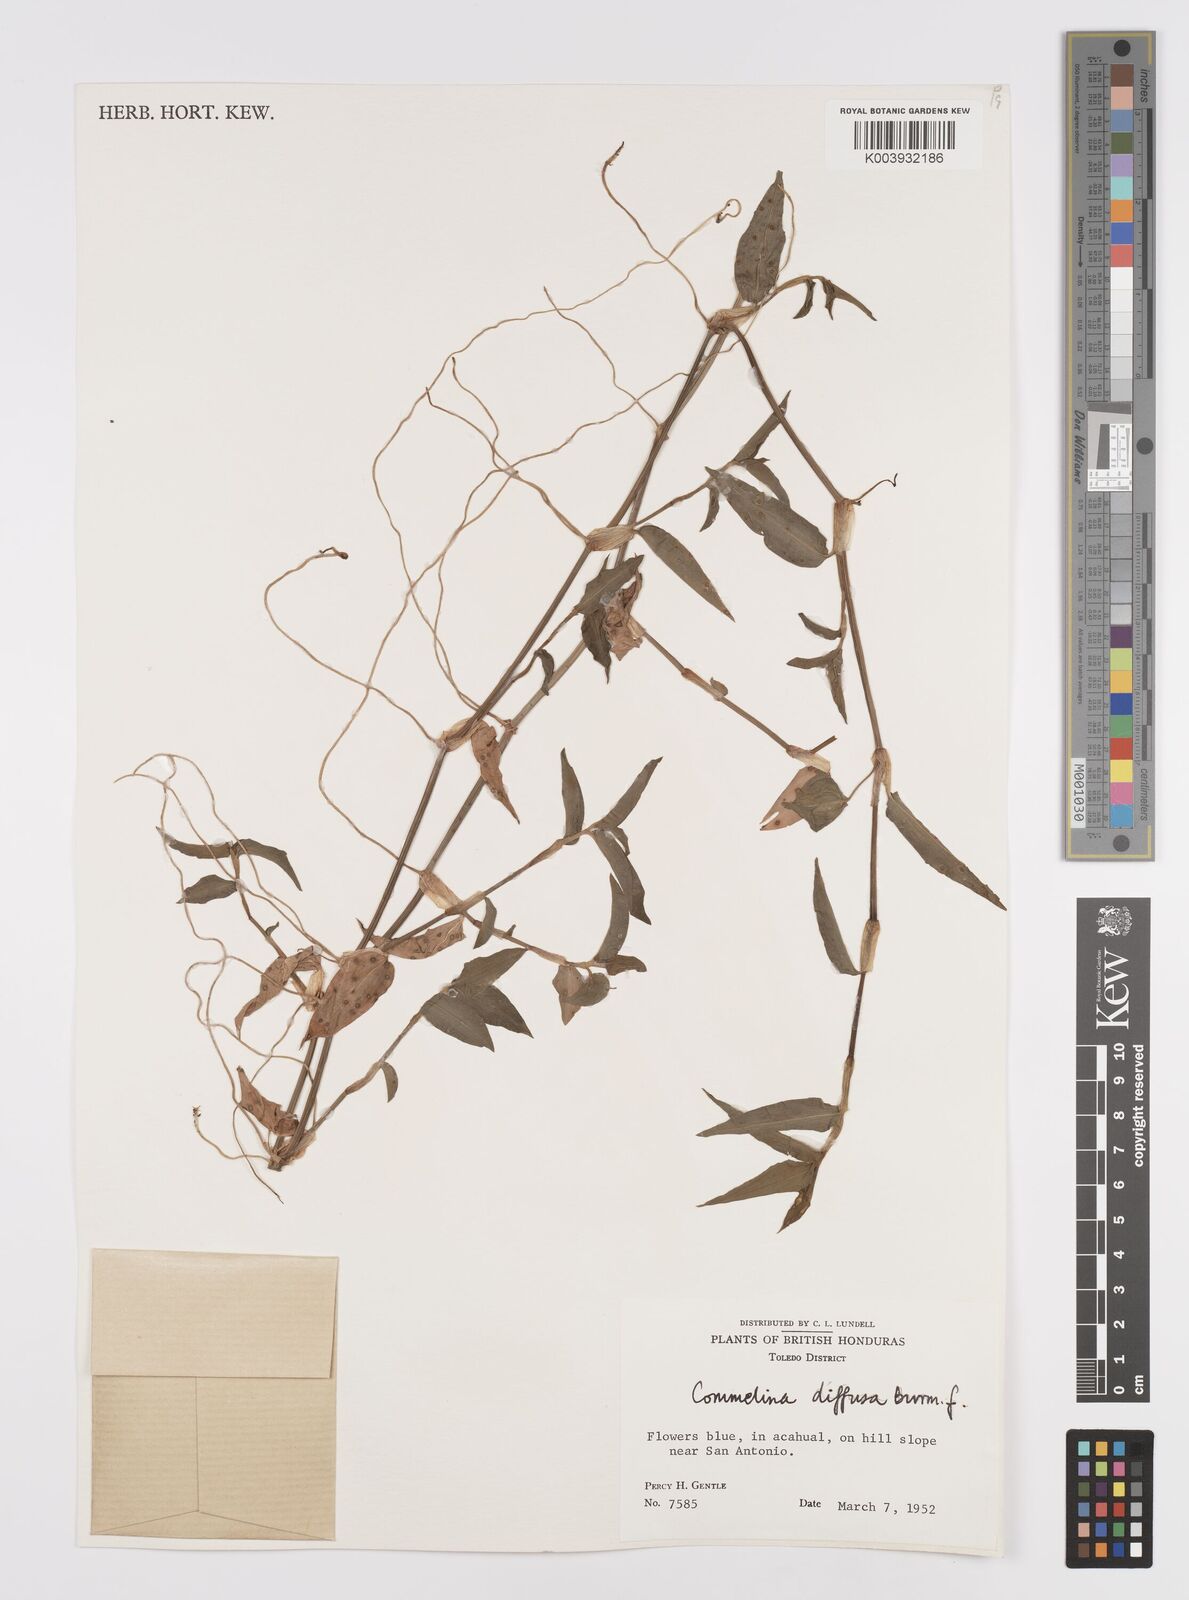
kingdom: Plantae
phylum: Tracheophyta
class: Liliopsida
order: Commelinales
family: Commelinaceae
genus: Commelina
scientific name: Commelina diffusa
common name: Climbing dayflower
